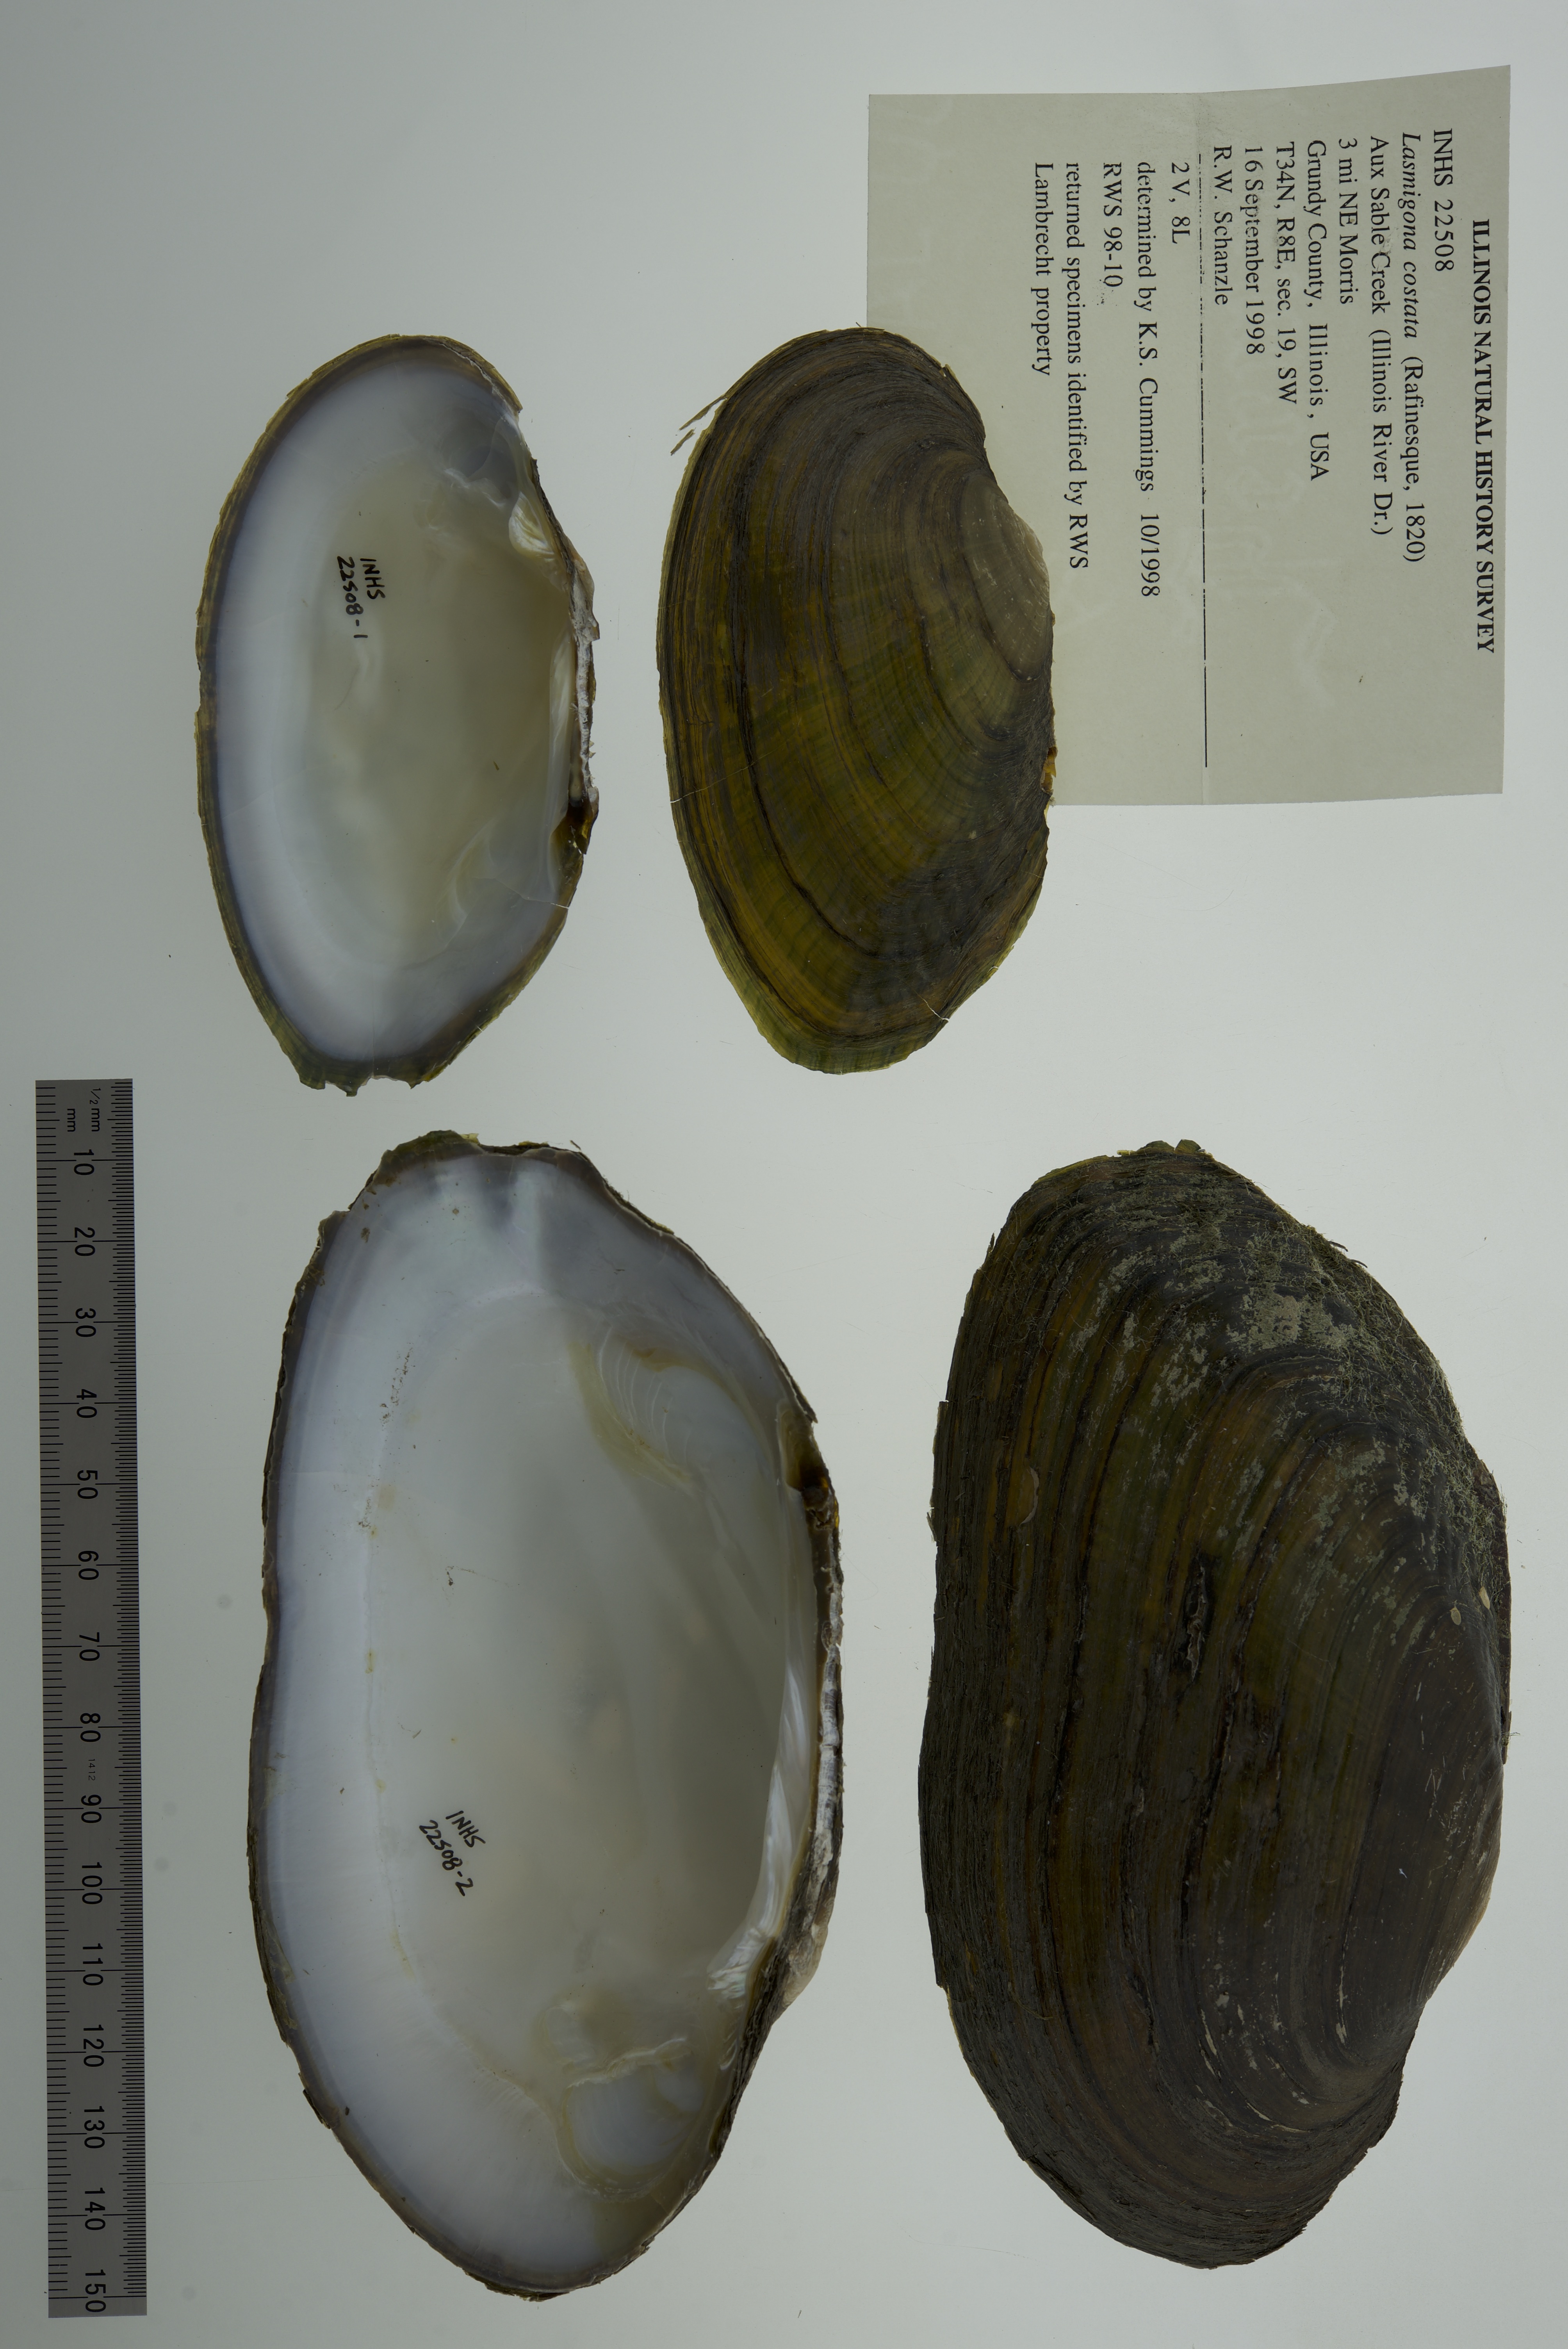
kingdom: Animalia
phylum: Mollusca
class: Bivalvia
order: Unionida
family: Unionidae
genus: Lasmigona
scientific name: Lasmigona costata
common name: Flutedshell
